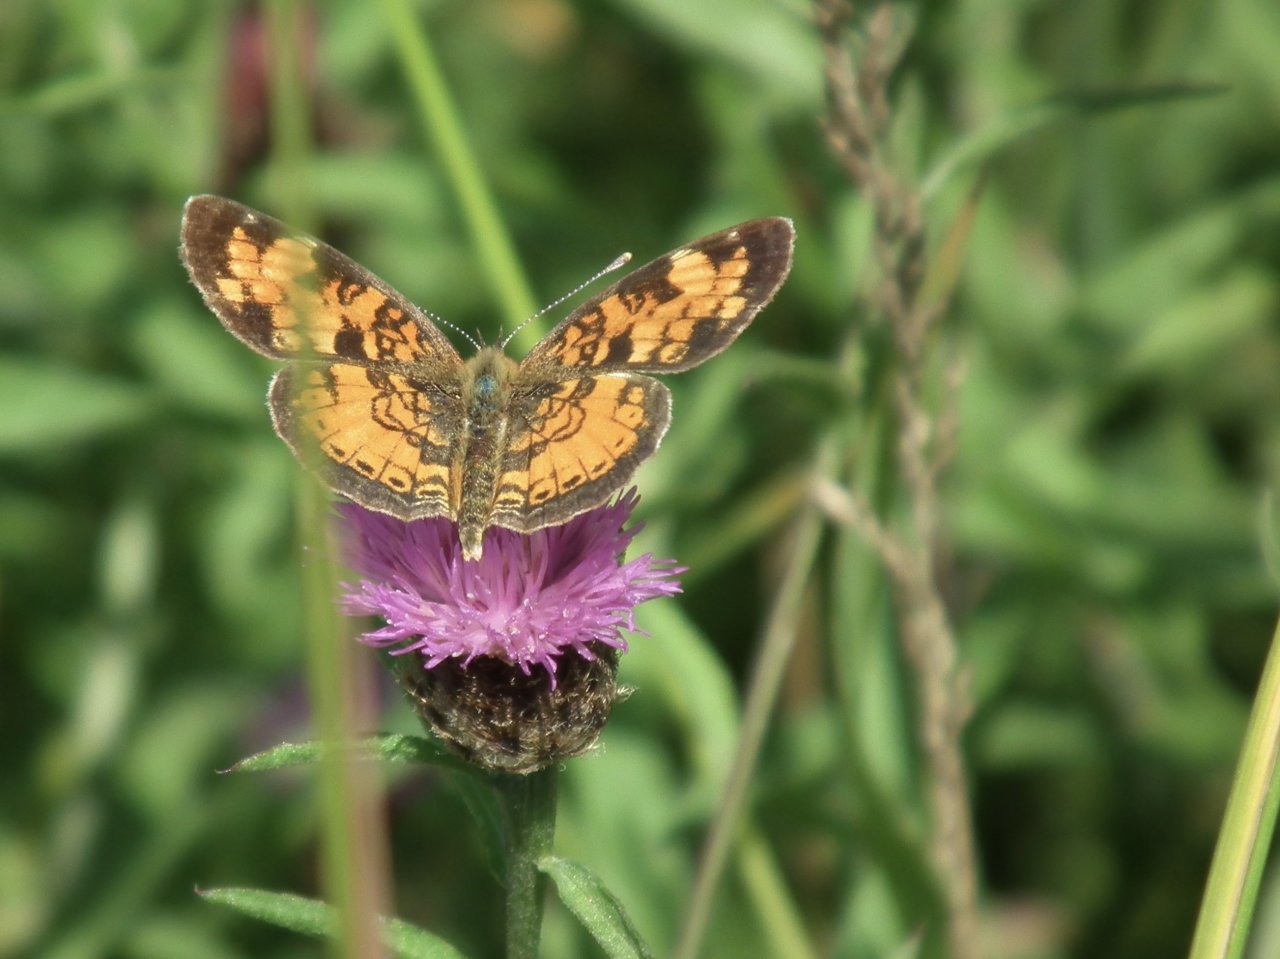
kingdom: Animalia
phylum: Arthropoda
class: Insecta
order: Lepidoptera
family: Nymphalidae
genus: Phyciodes
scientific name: Phyciodes tharos
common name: Northern Crescent
